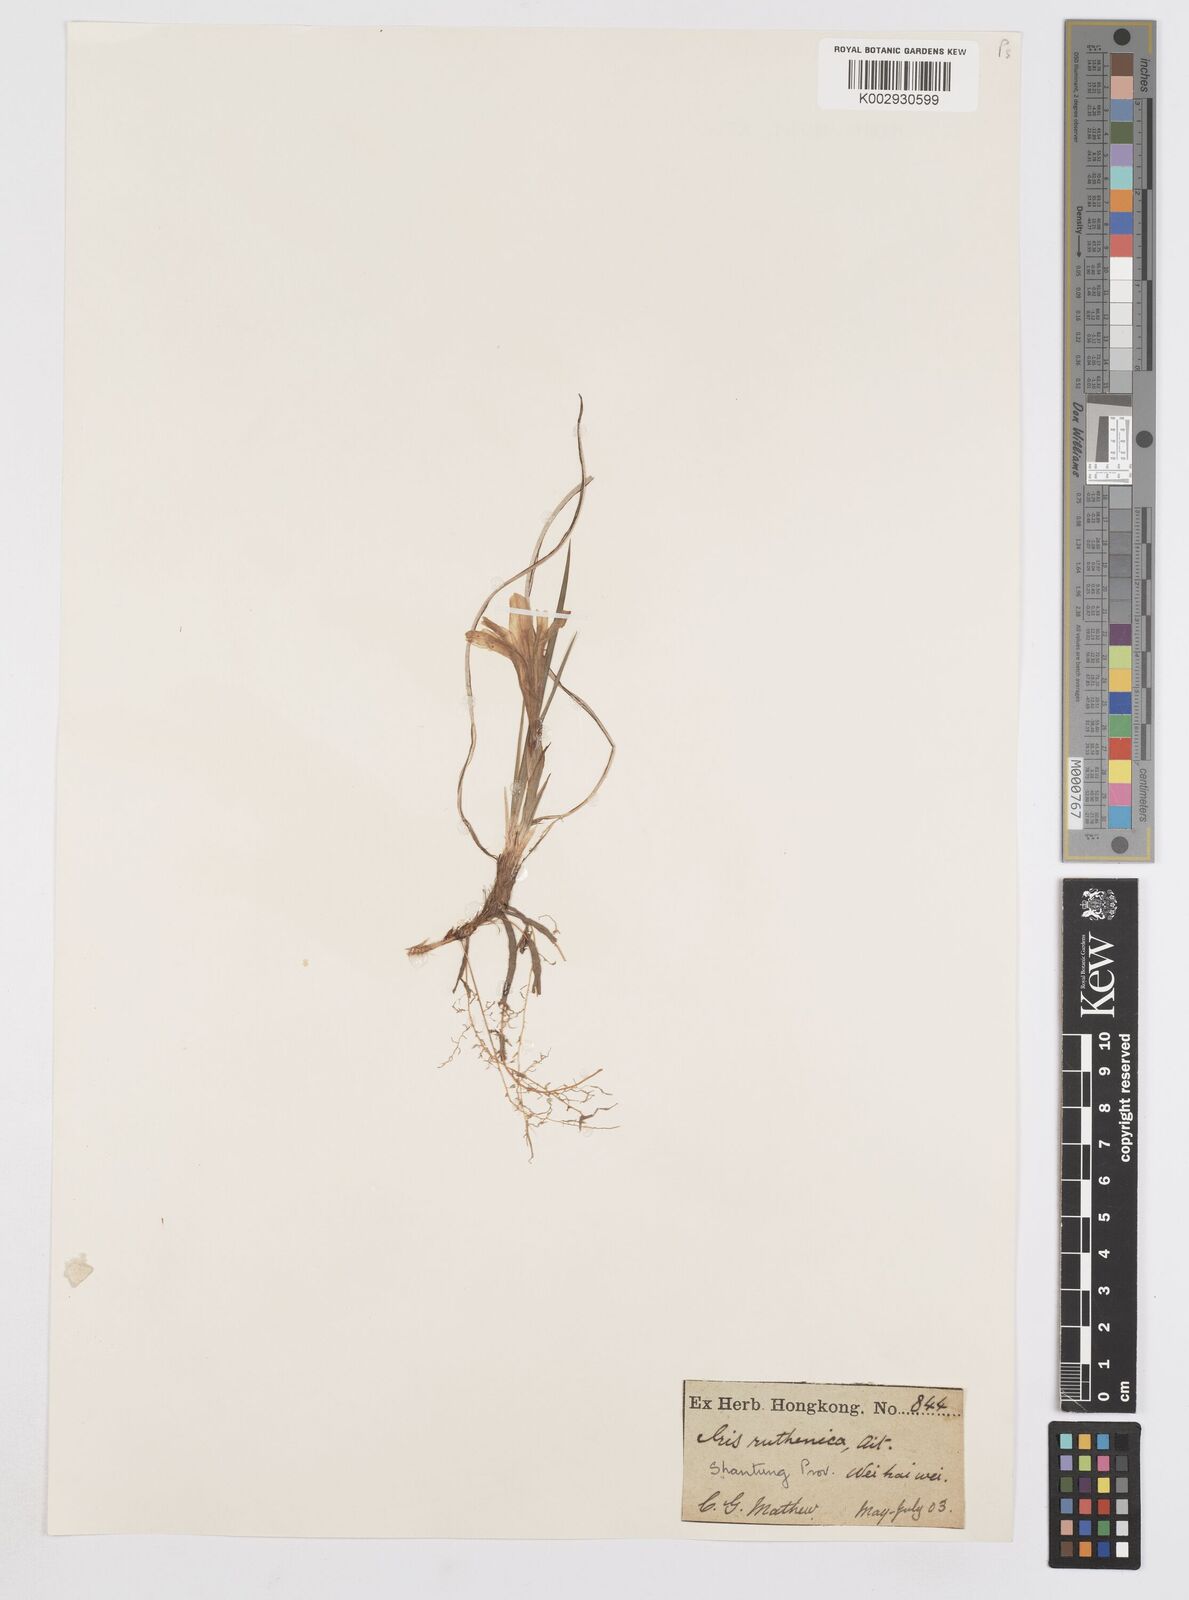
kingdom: Plantae
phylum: Tracheophyta
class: Liliopsida
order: Asparagales
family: Iridaceae
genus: Iris
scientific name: Iris
